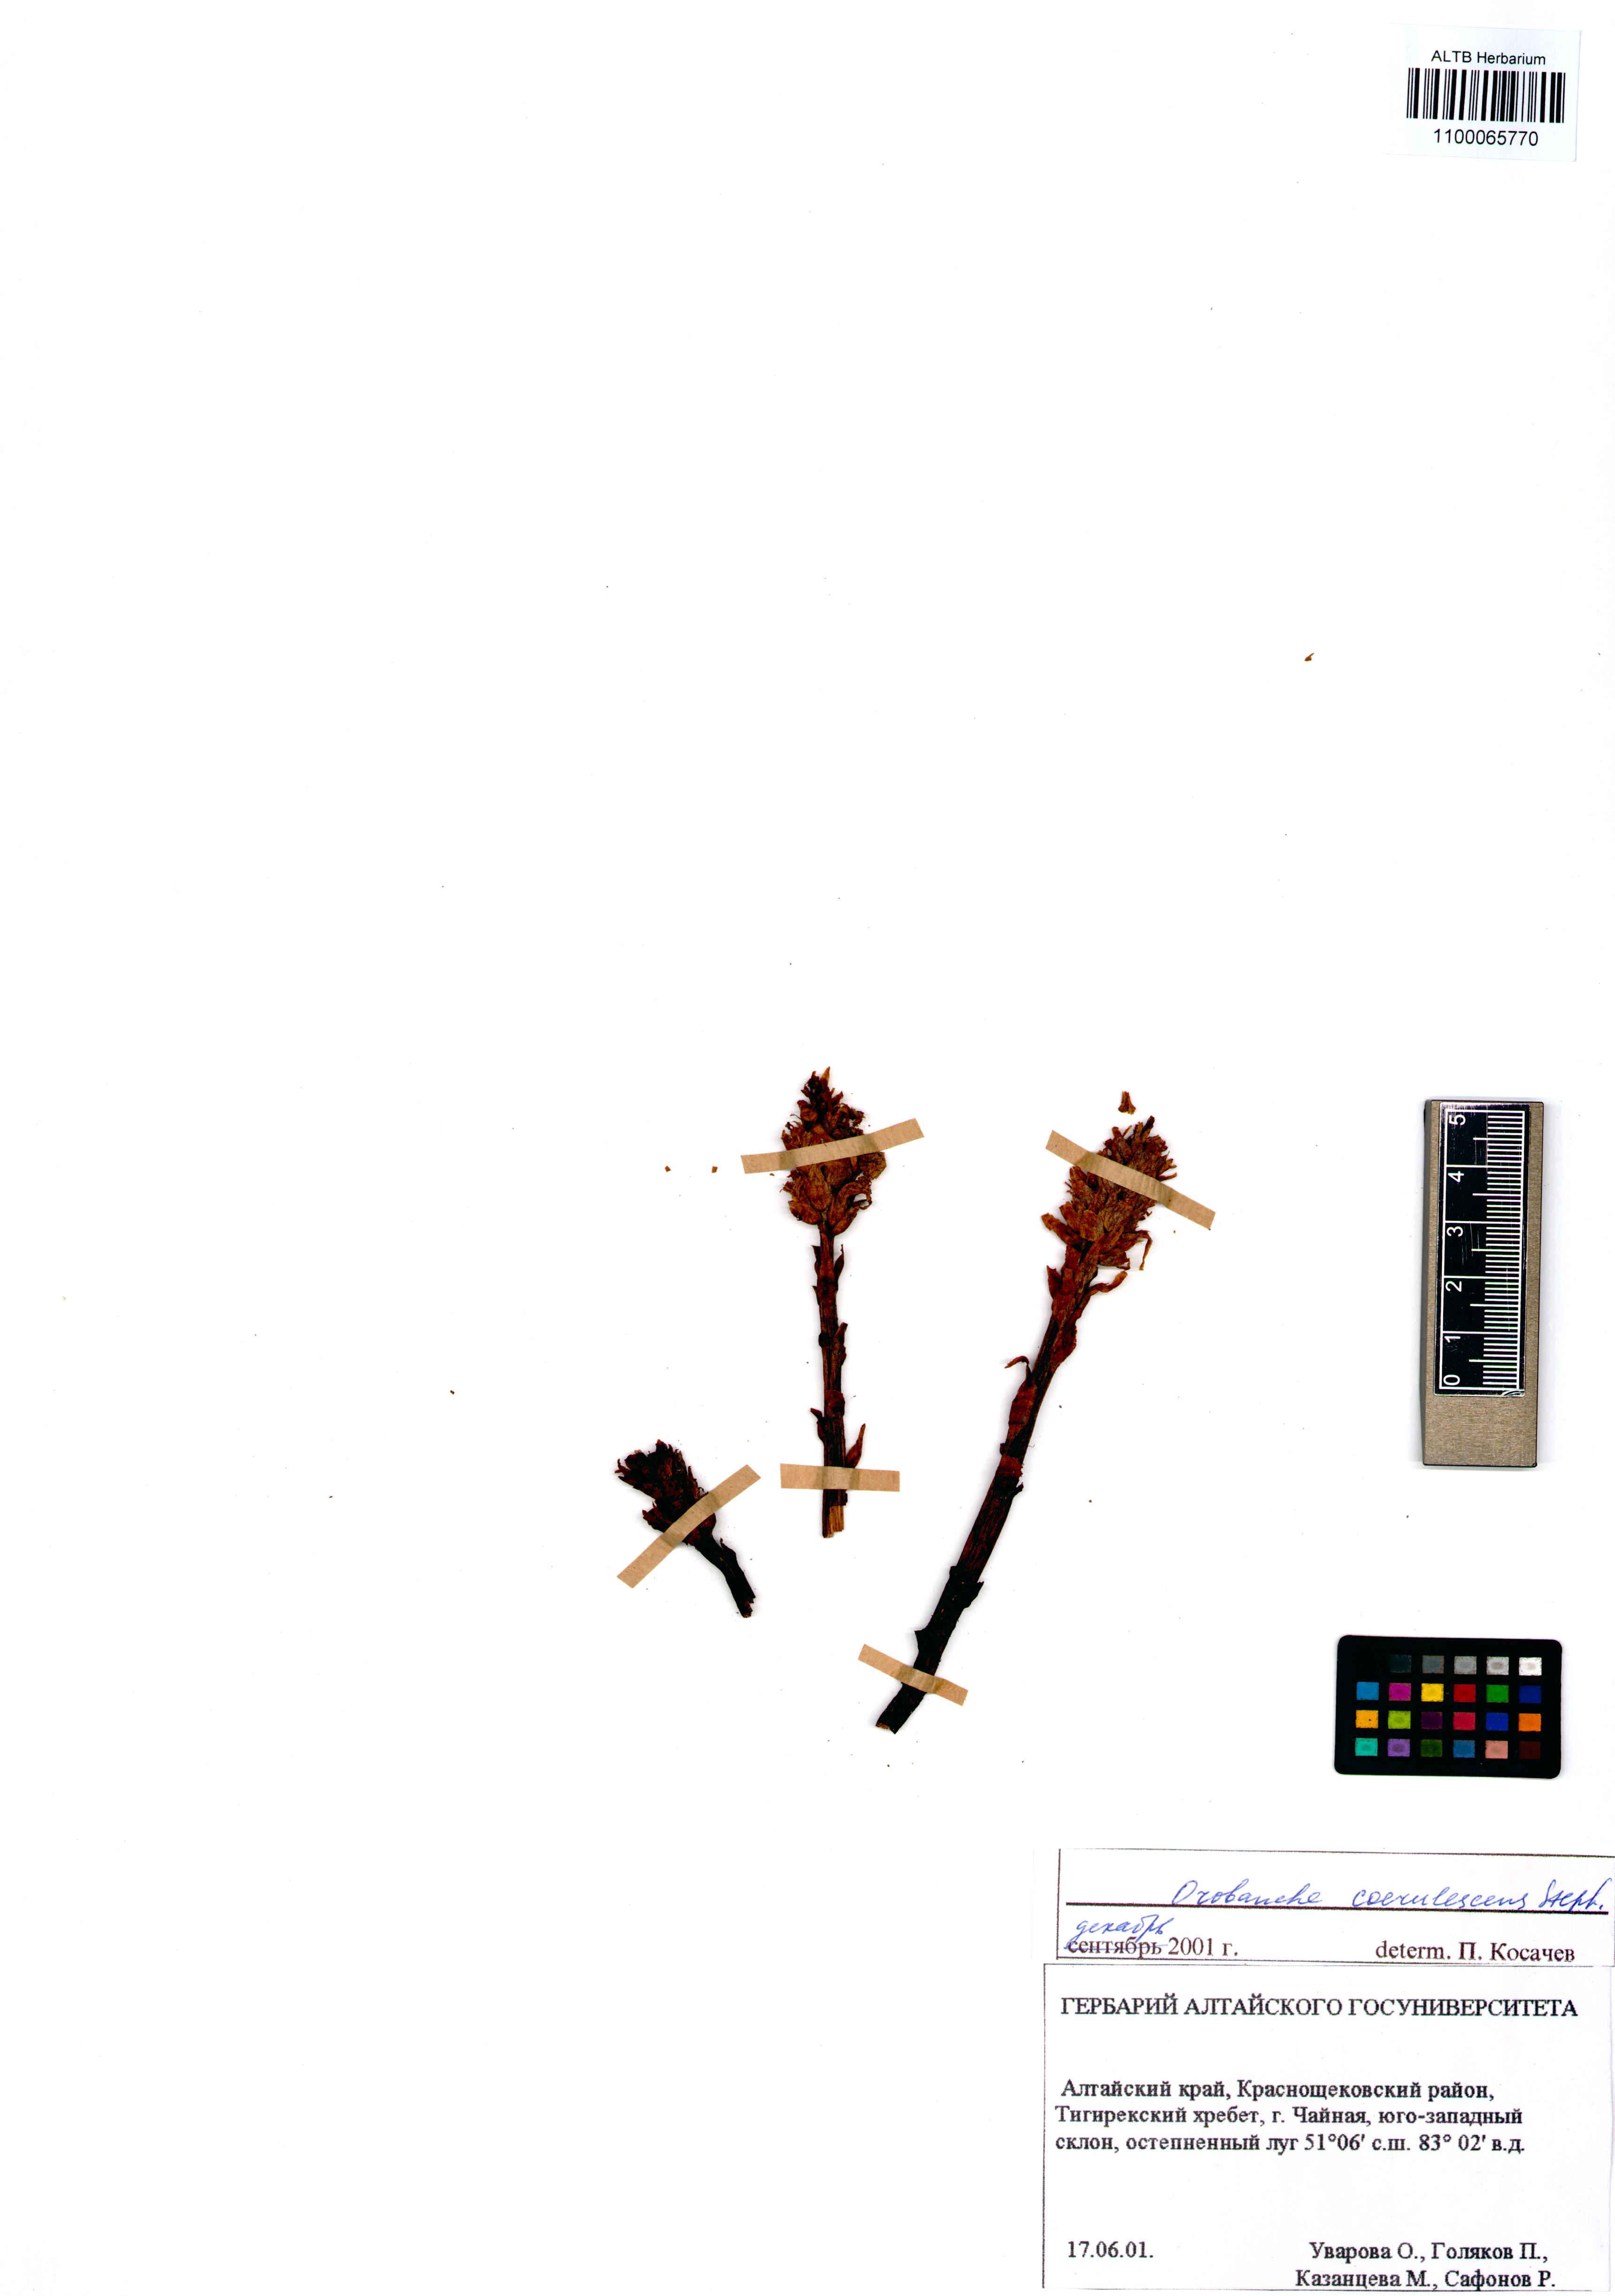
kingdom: Plantae
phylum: Tracheophyta
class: Magnoliopsida
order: Lamiales
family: Orobanchaceae
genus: Orobanche
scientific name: Orobanche coerulescens
